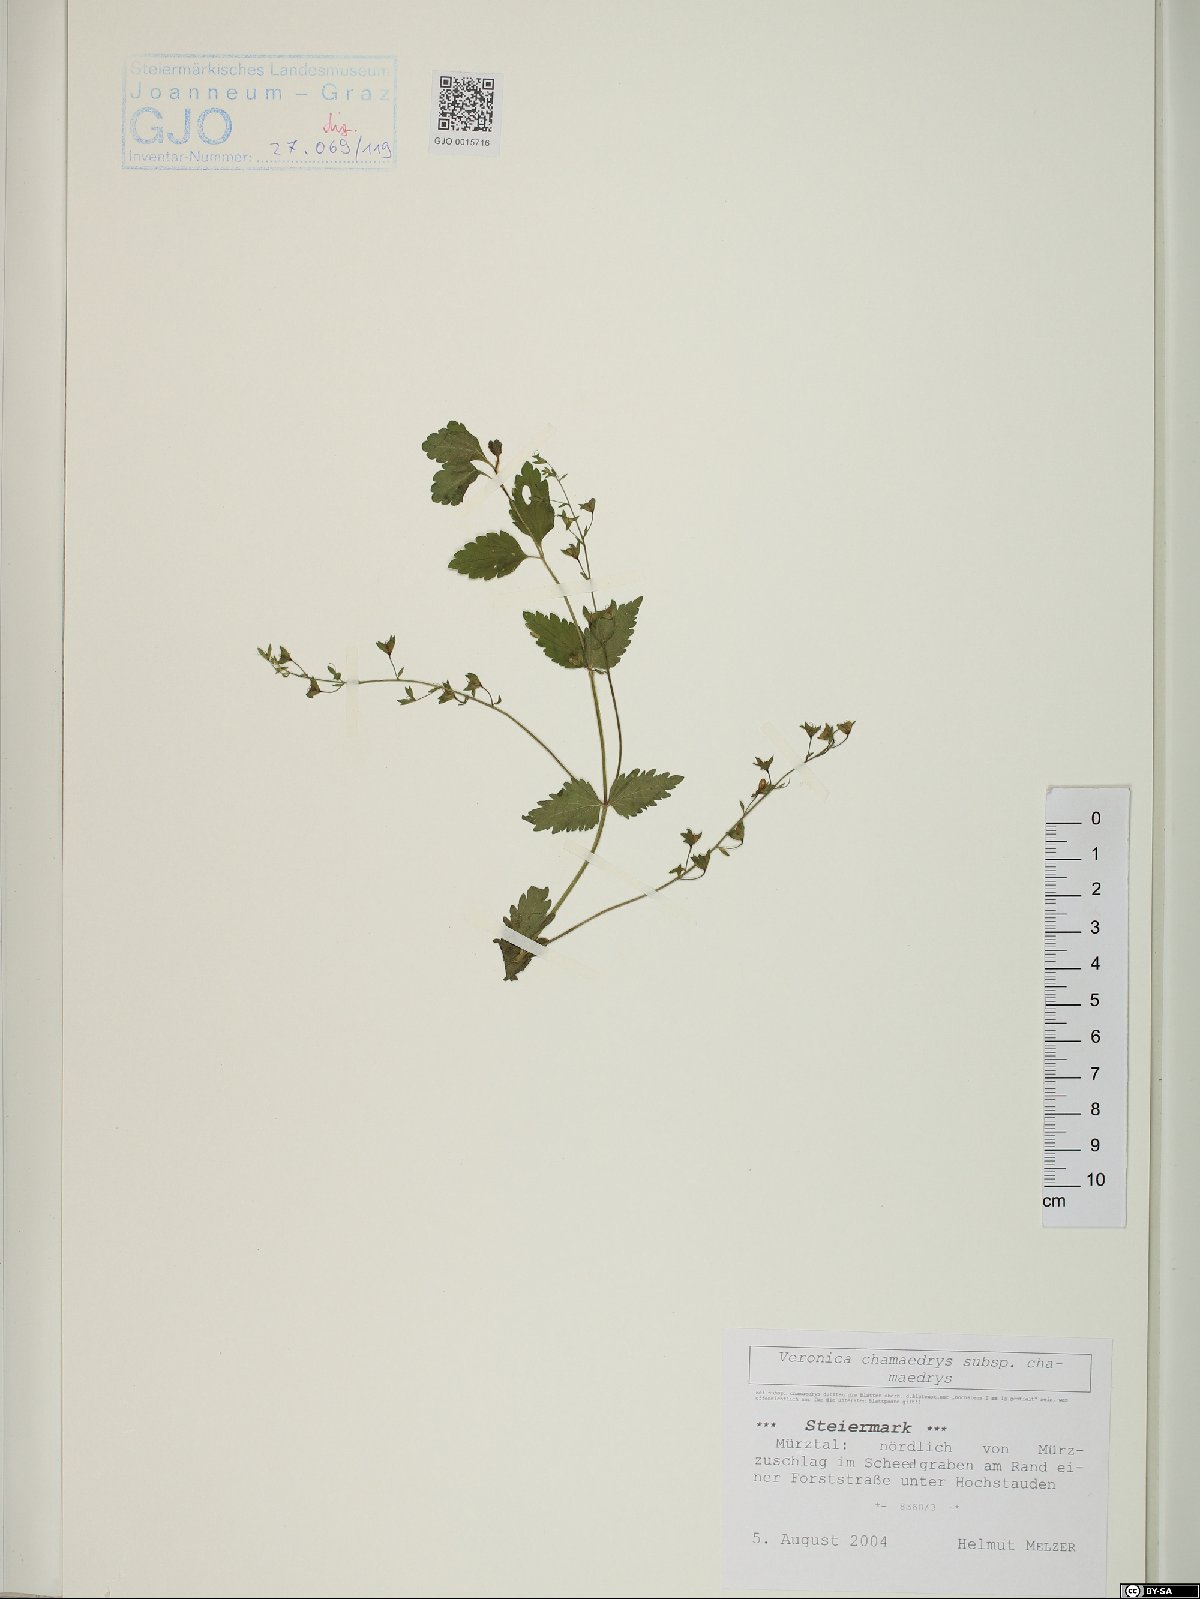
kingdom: Plantae
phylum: Tracheophyta
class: Magnoliopsida
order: Lamiales
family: Plantaginaceae
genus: Veronica
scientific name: Veronica chamaedrys
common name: Germander speedwell
